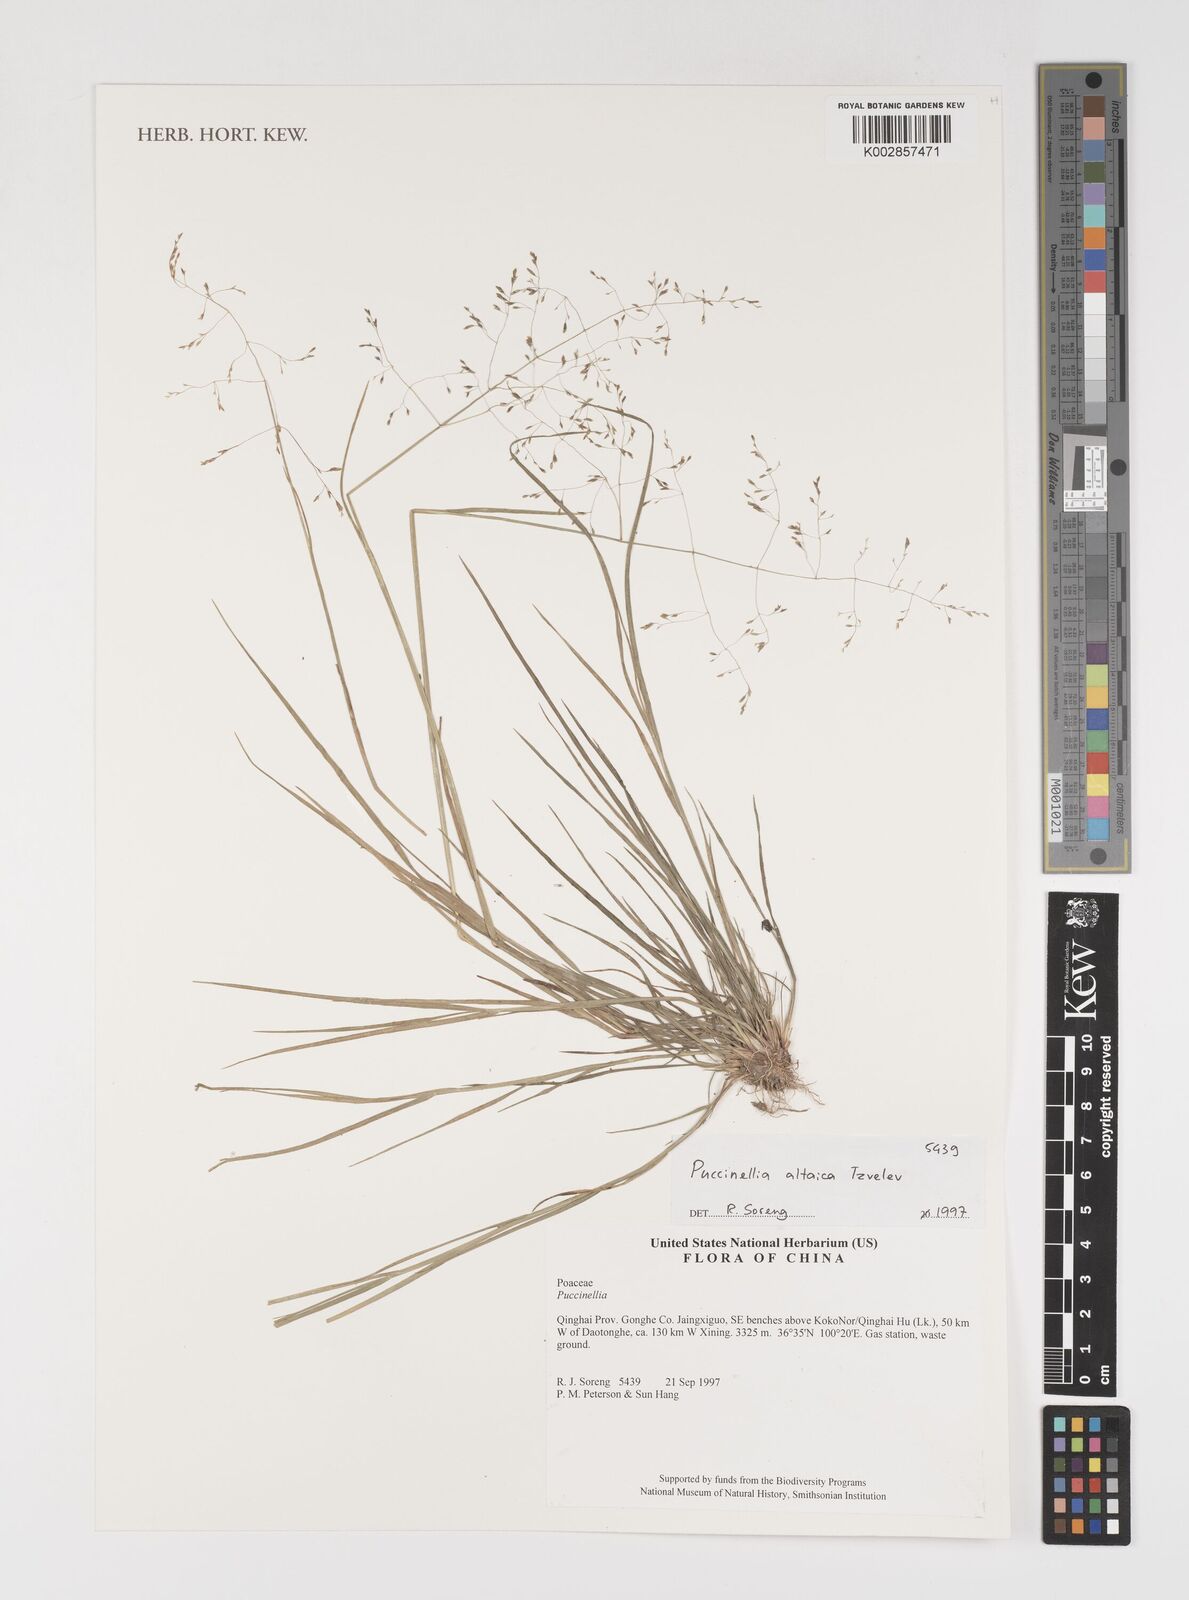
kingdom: Plantae
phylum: Tracheophyta
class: Liliopsida
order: Poales
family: Poaceae
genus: Puccinellia
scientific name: Puccinellia altaica
